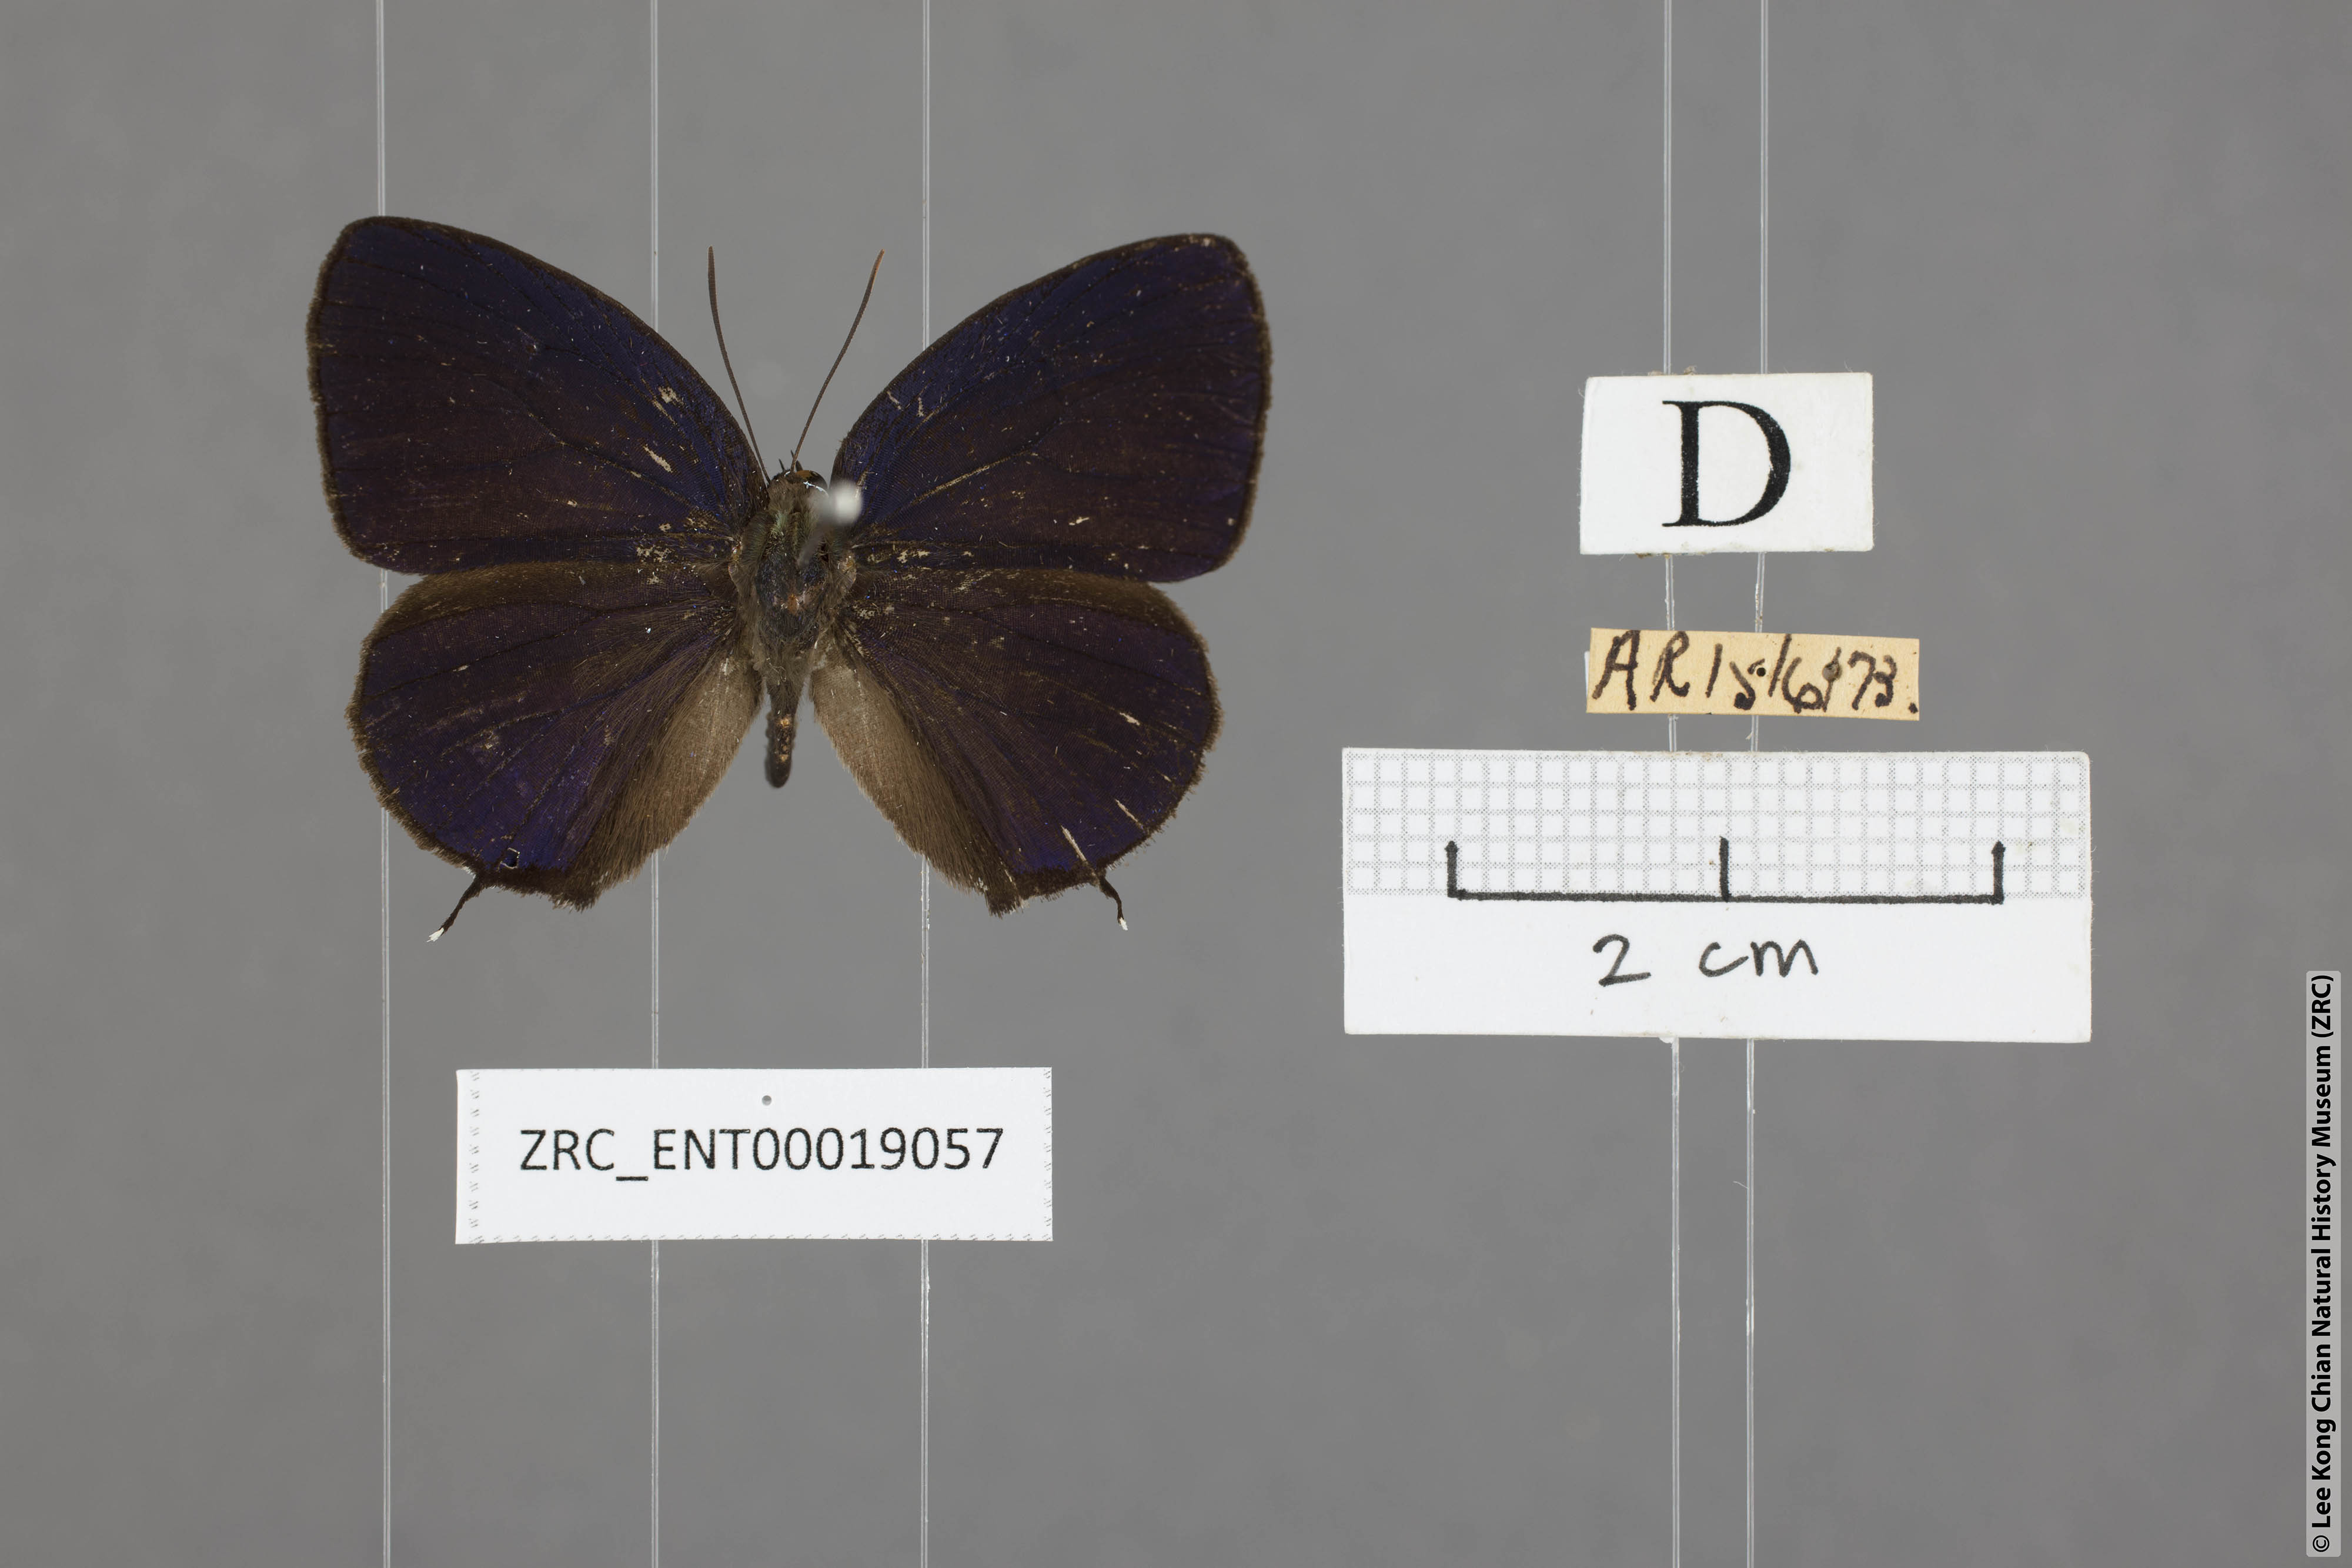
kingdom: Animalia
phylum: Arthropoda
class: Insecta
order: Lepidoptera
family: Lycaenidae
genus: Arhopala
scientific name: Arhopala agrata
